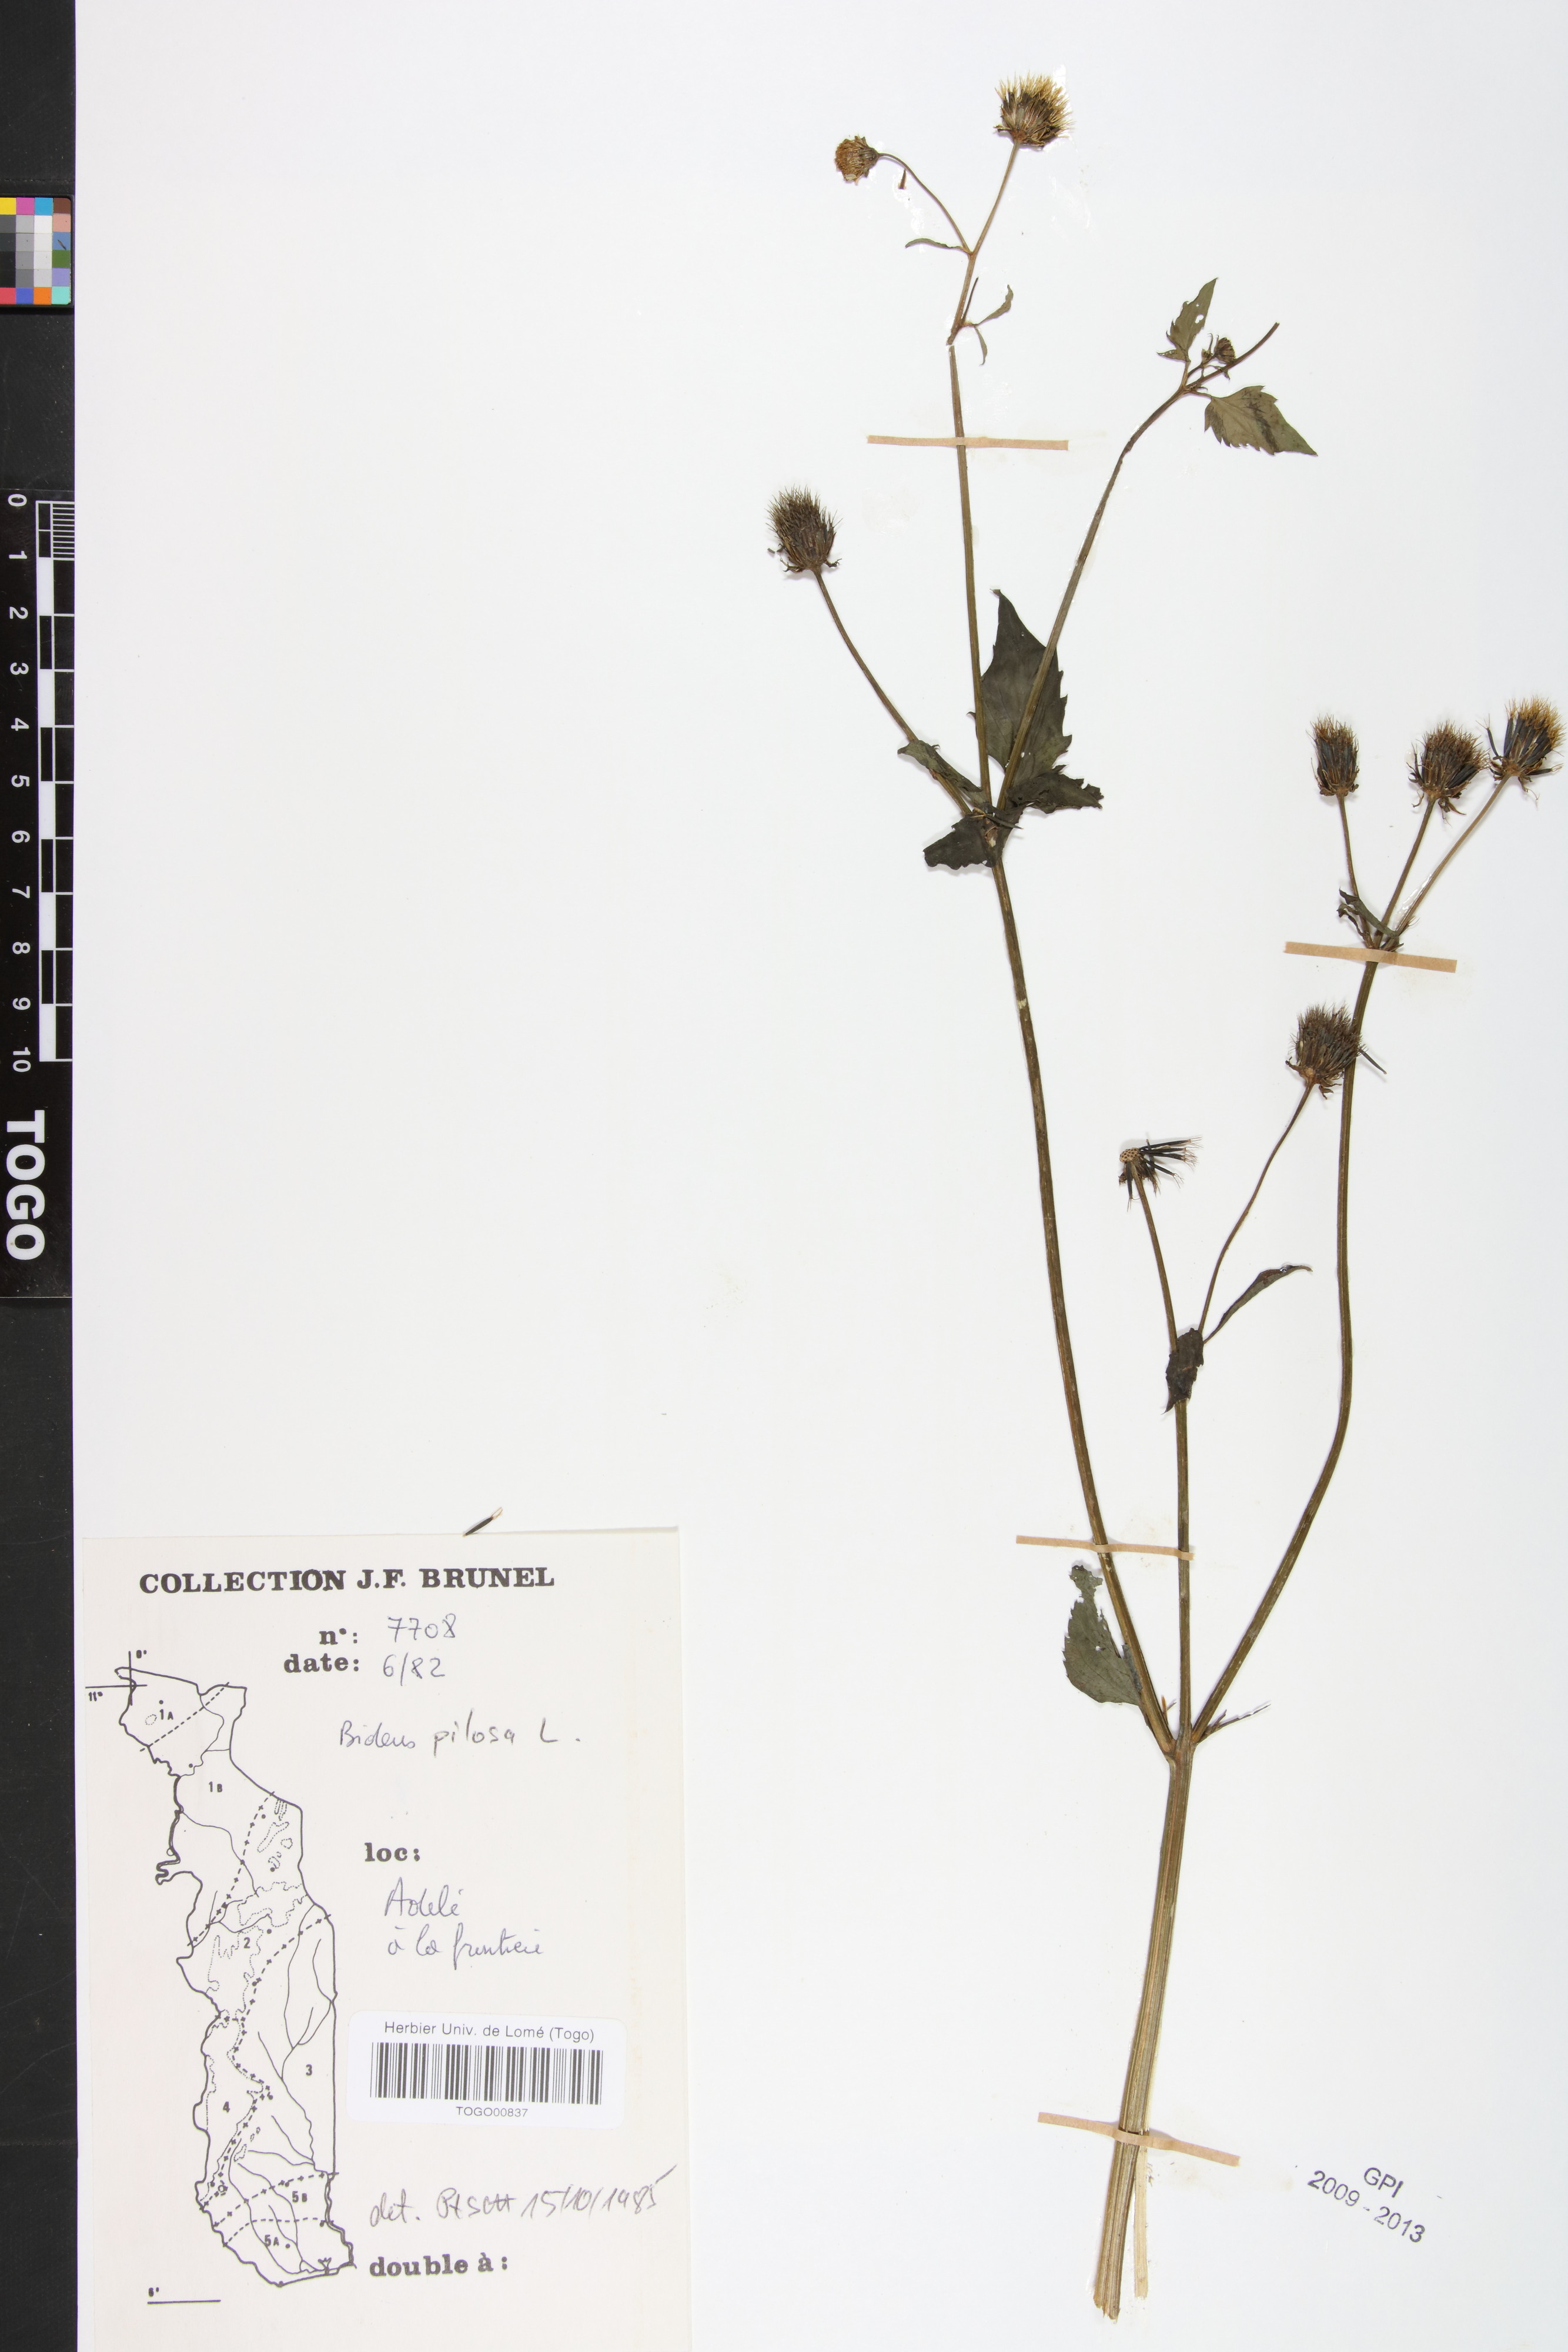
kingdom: Plantae
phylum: Tracheophyta
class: Magnoliopsida
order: Asterales
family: Asteraceae
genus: Bidens
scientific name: Bidens pilosa
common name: Black-jack
